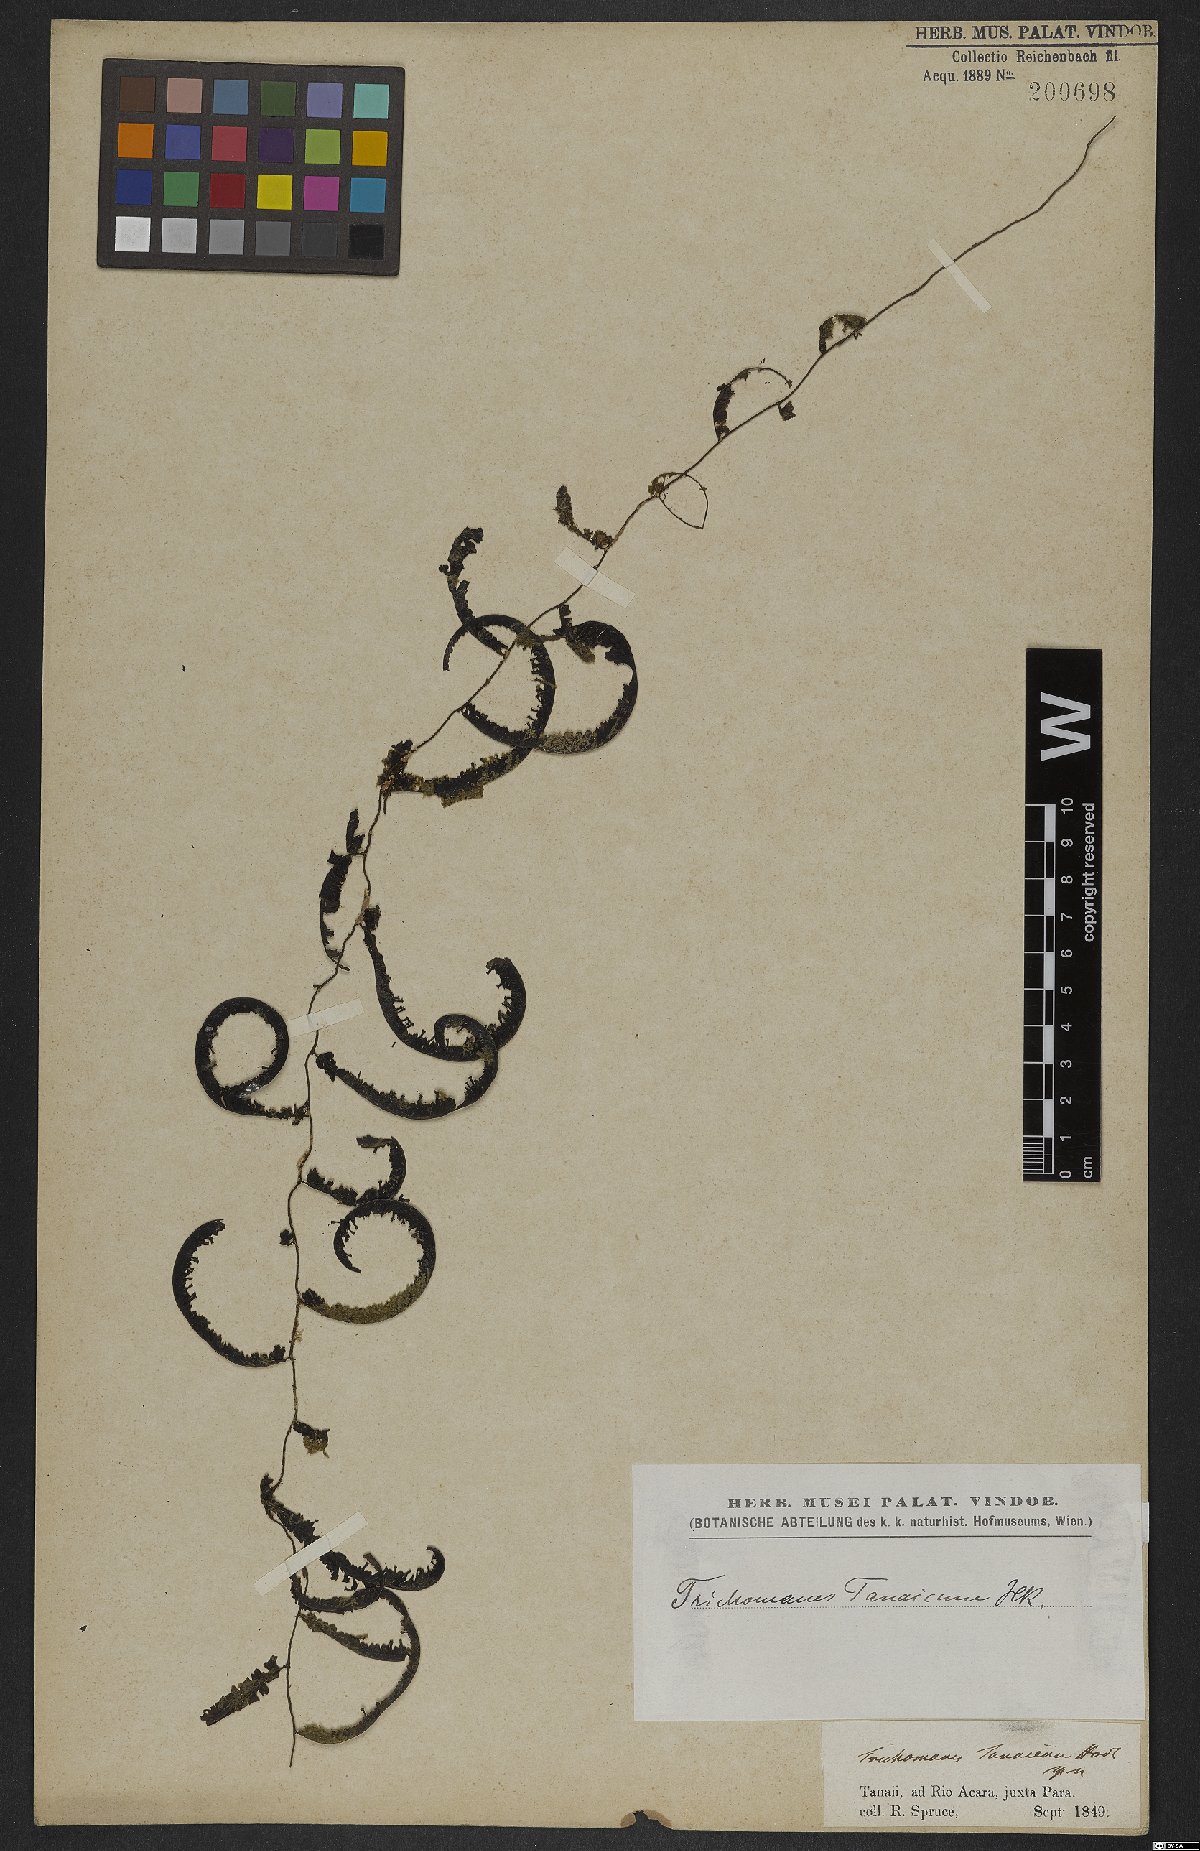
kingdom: Plantae
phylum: Tracheophyta
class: Polypodiopsida
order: Hymenophyllales
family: Hymenophyllaceae
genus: Trichomanes
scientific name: Trichomanes tanaicum
